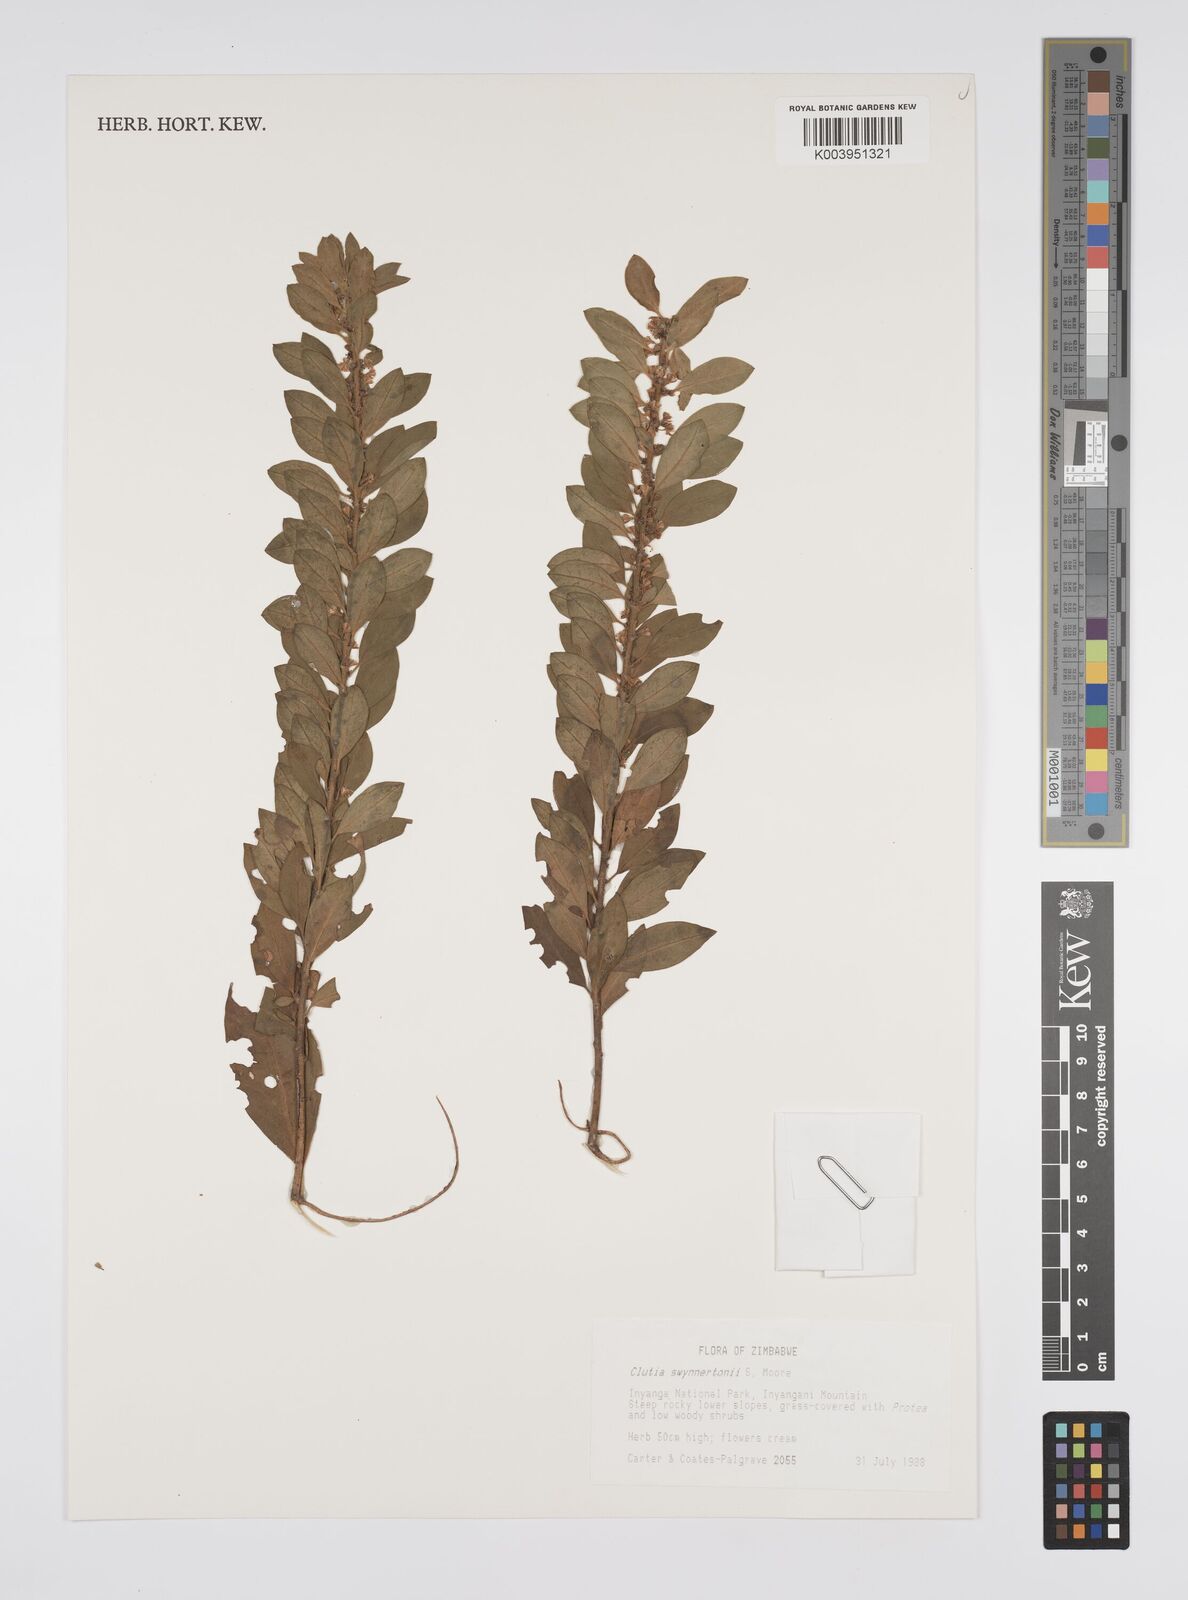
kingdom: Plantae
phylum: Tracheophyta
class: Magnoliopsida
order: Malpighiales
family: Peraceae
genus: Clutia
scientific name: Clutia swynnertonii
